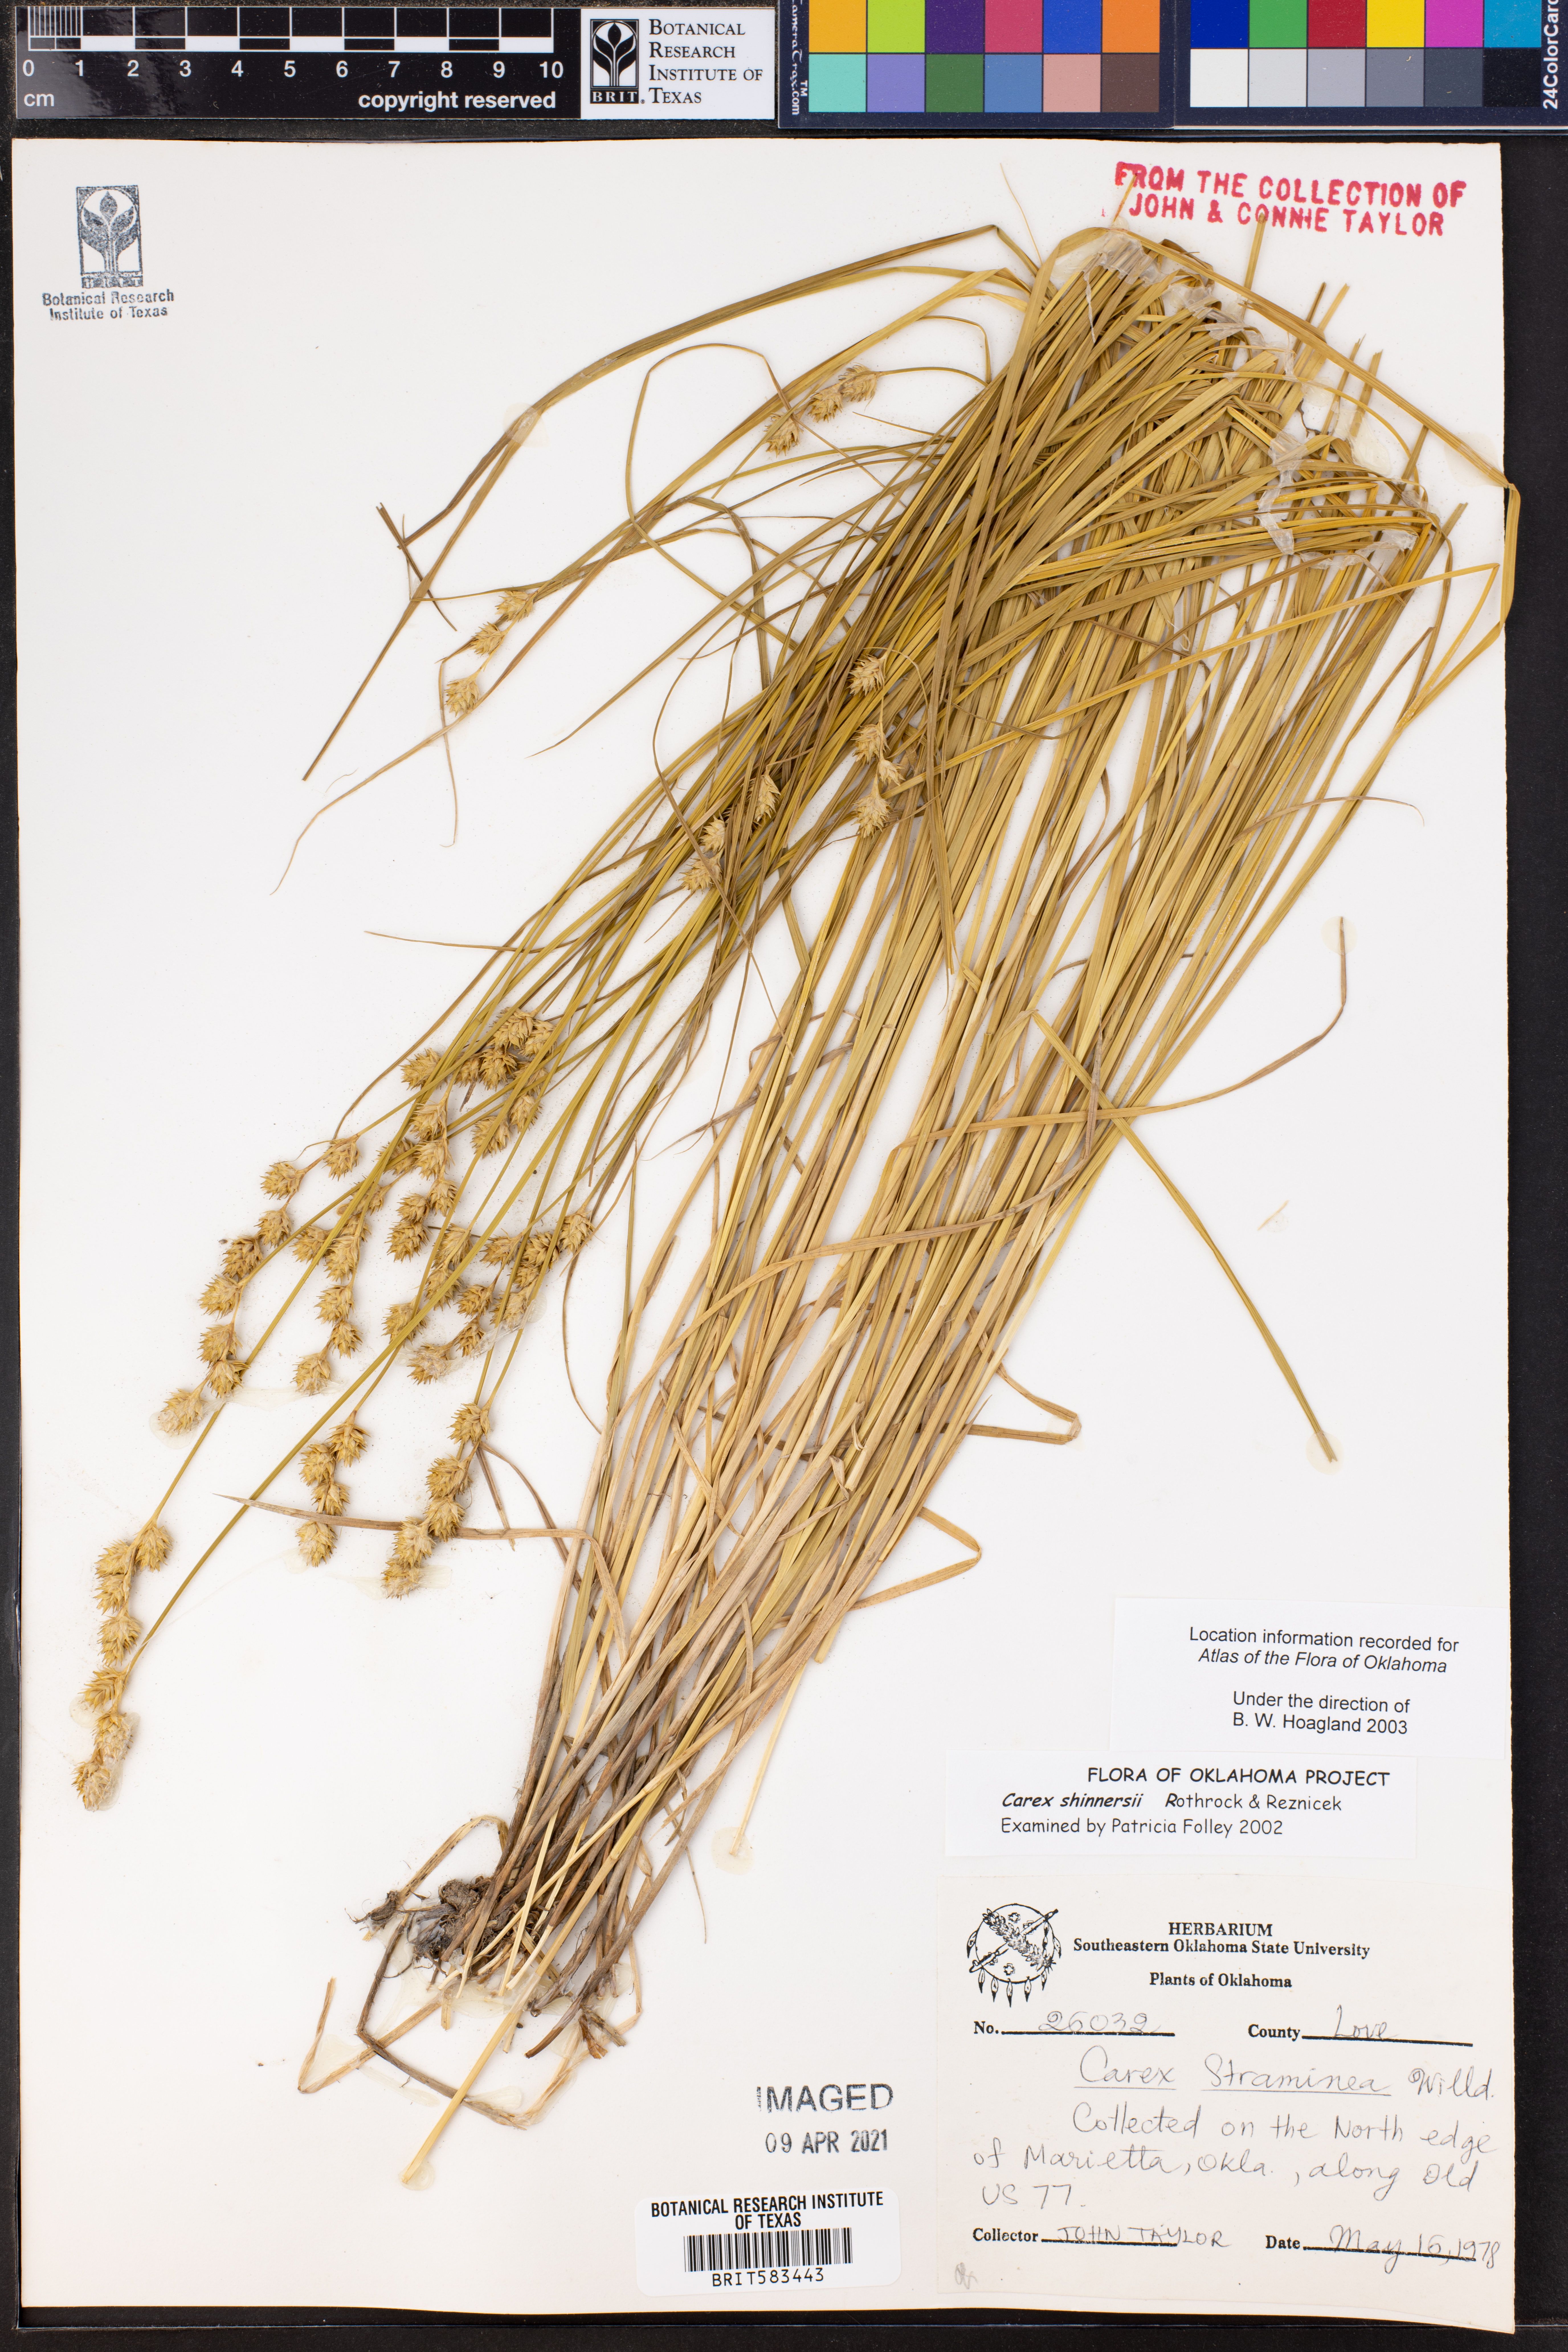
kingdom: Plantae
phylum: Tracheophyta
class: Liliopsida
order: Poales
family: Cyperaceae
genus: Carex
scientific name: Carex shinnersii
